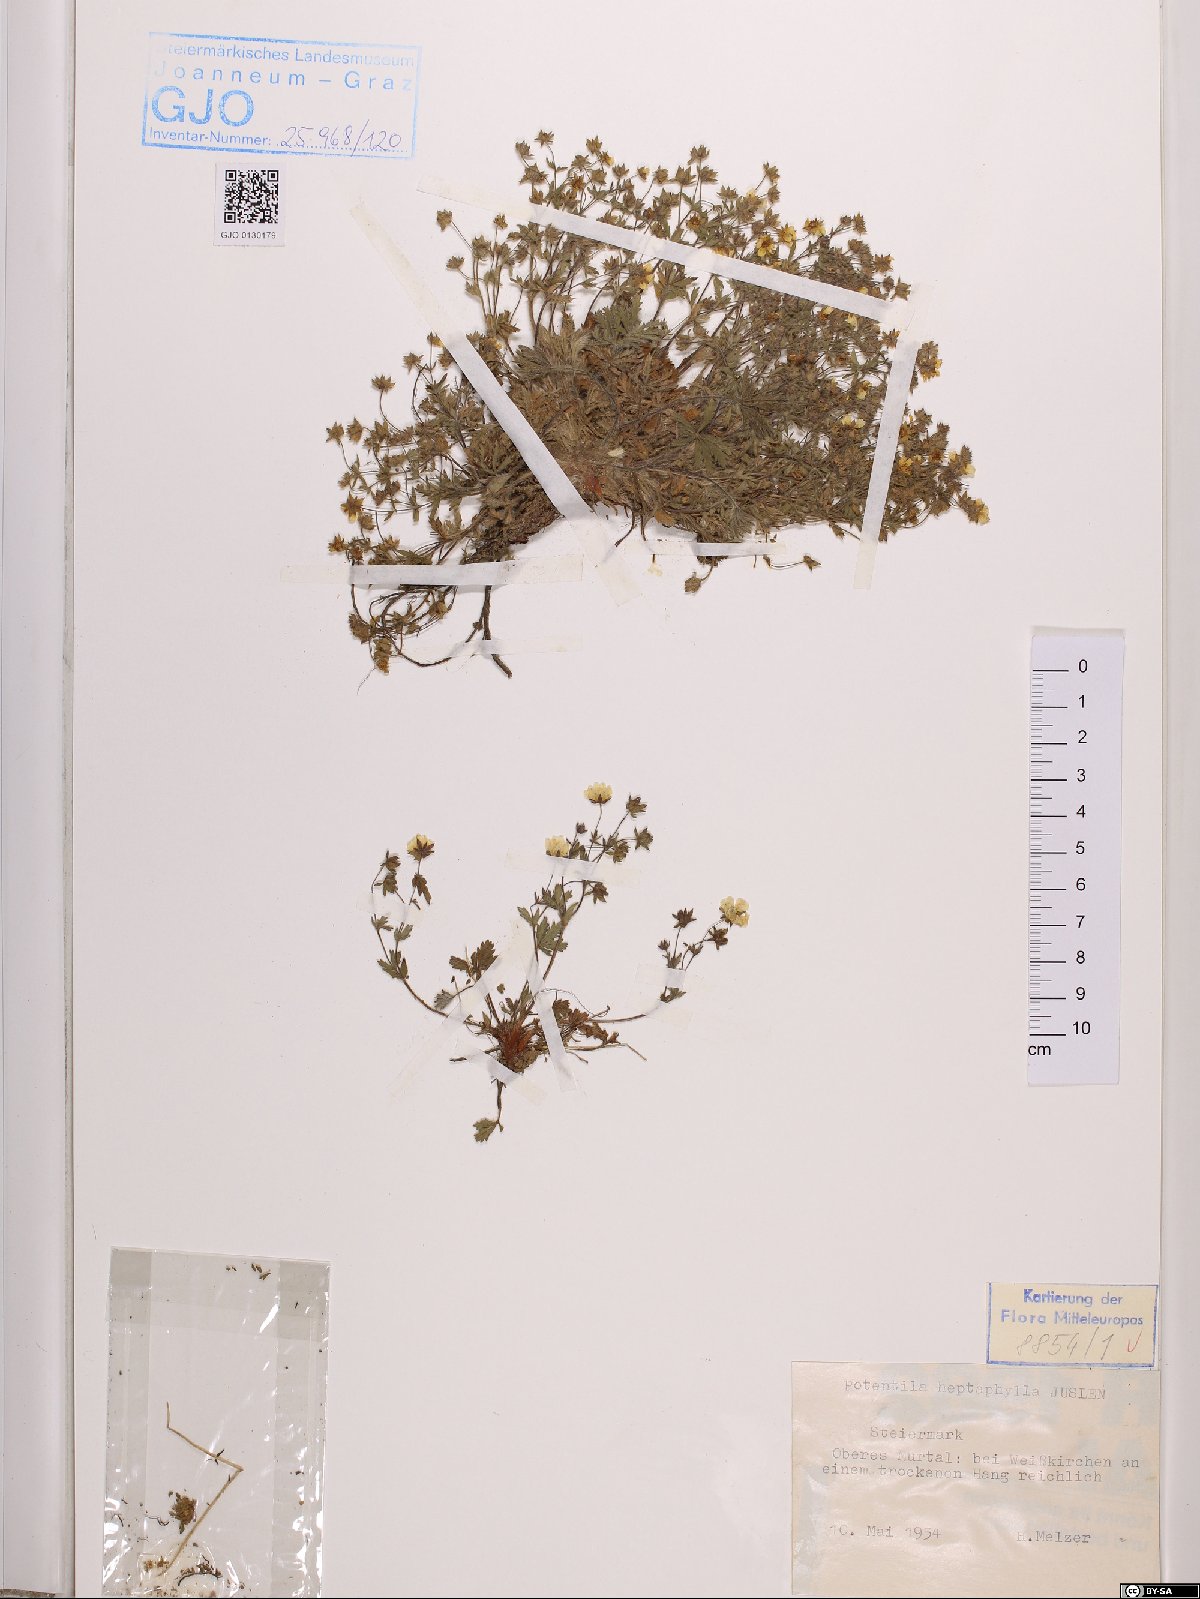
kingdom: Plantae
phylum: Tracheophyta
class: Magnoliopsida
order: Rosales
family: Rosaceae
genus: Potentilla
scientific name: Potentilla heptaphylla
